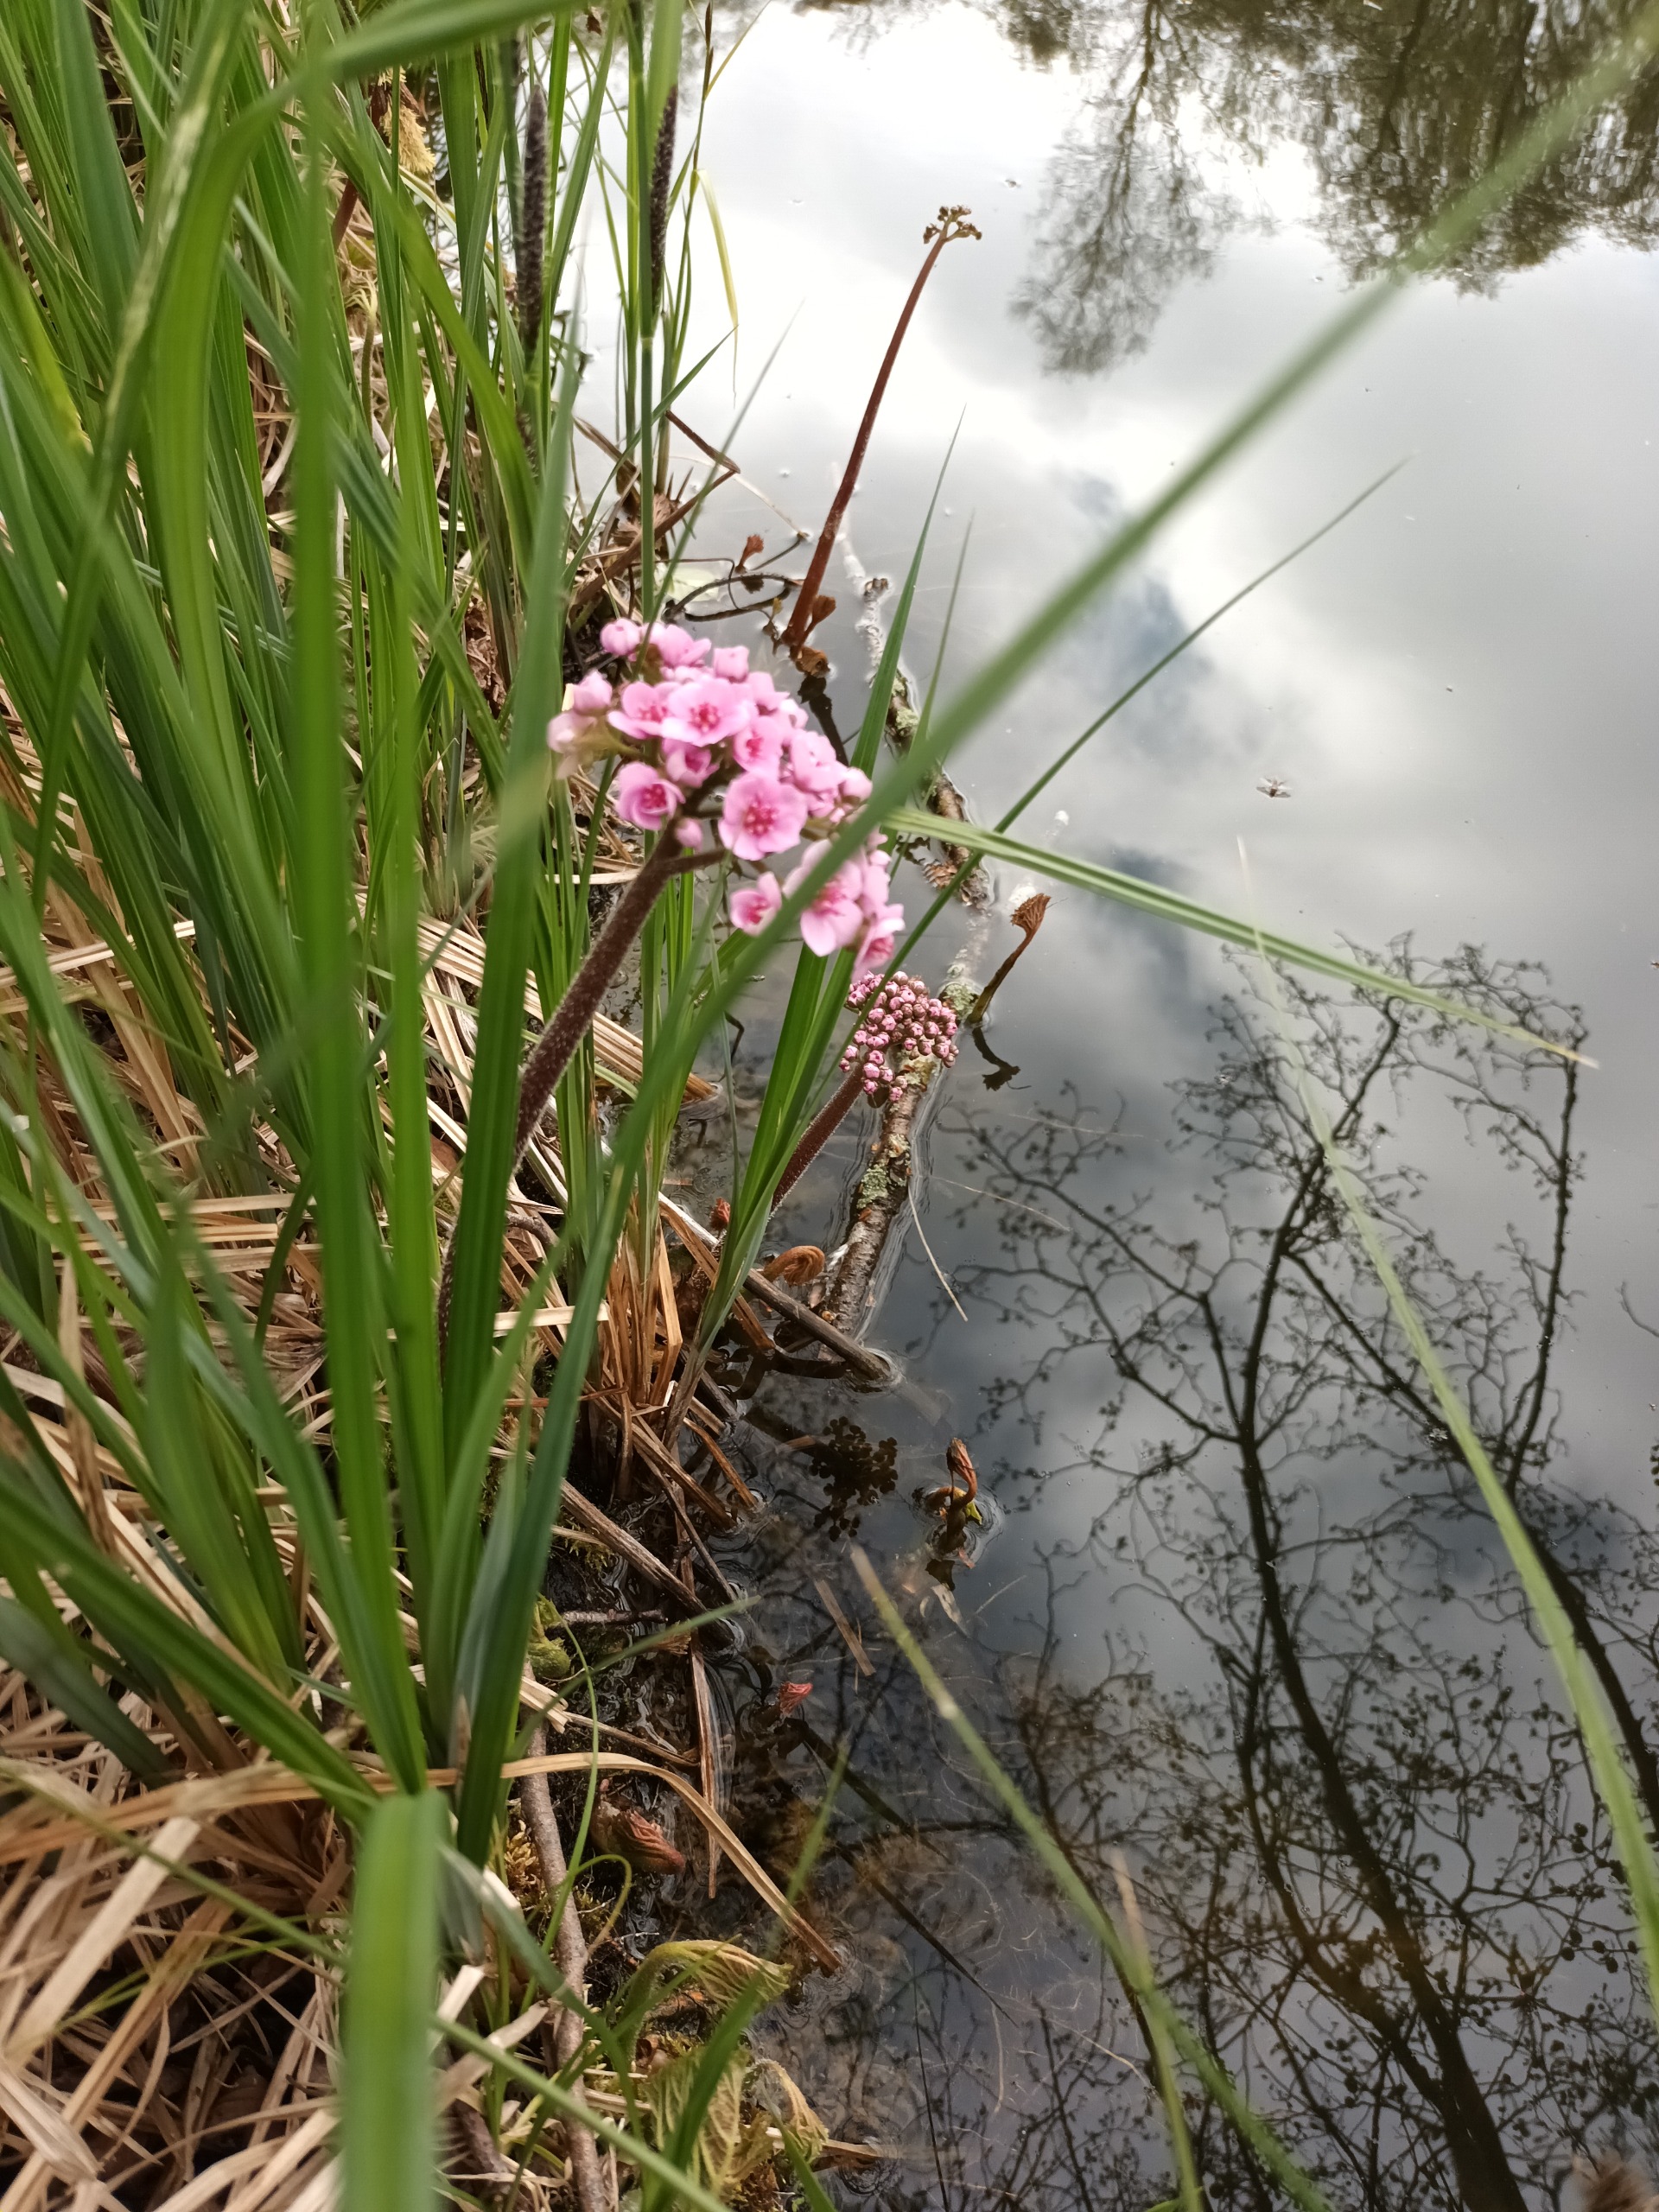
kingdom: Plantae
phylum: Tracheophyta
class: Magnoliopsida
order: Saxifragales
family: Saxifragaceae
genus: Darmera
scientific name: Darmera peltata
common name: Skjoldblad
